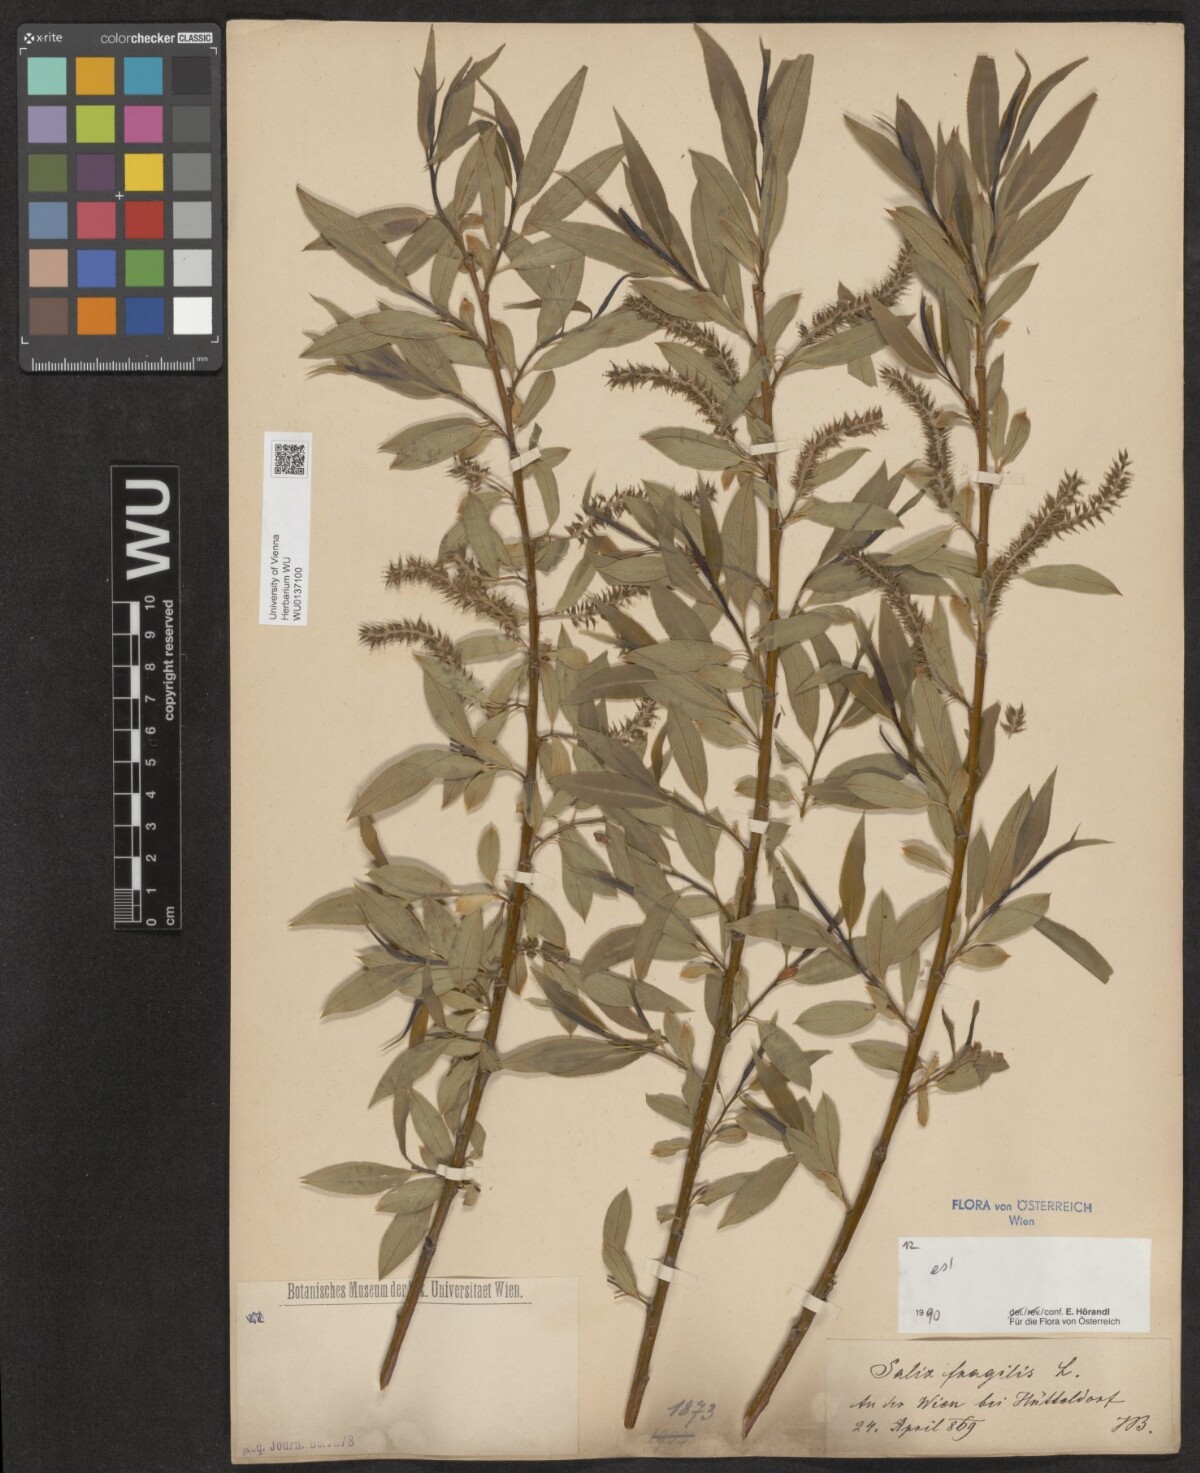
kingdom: Plantae
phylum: Tracheophyta
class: Magnoliopsida
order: Malpighiales
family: Salicaceae
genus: Salix
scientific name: Salix fragilis
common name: Crack willow
